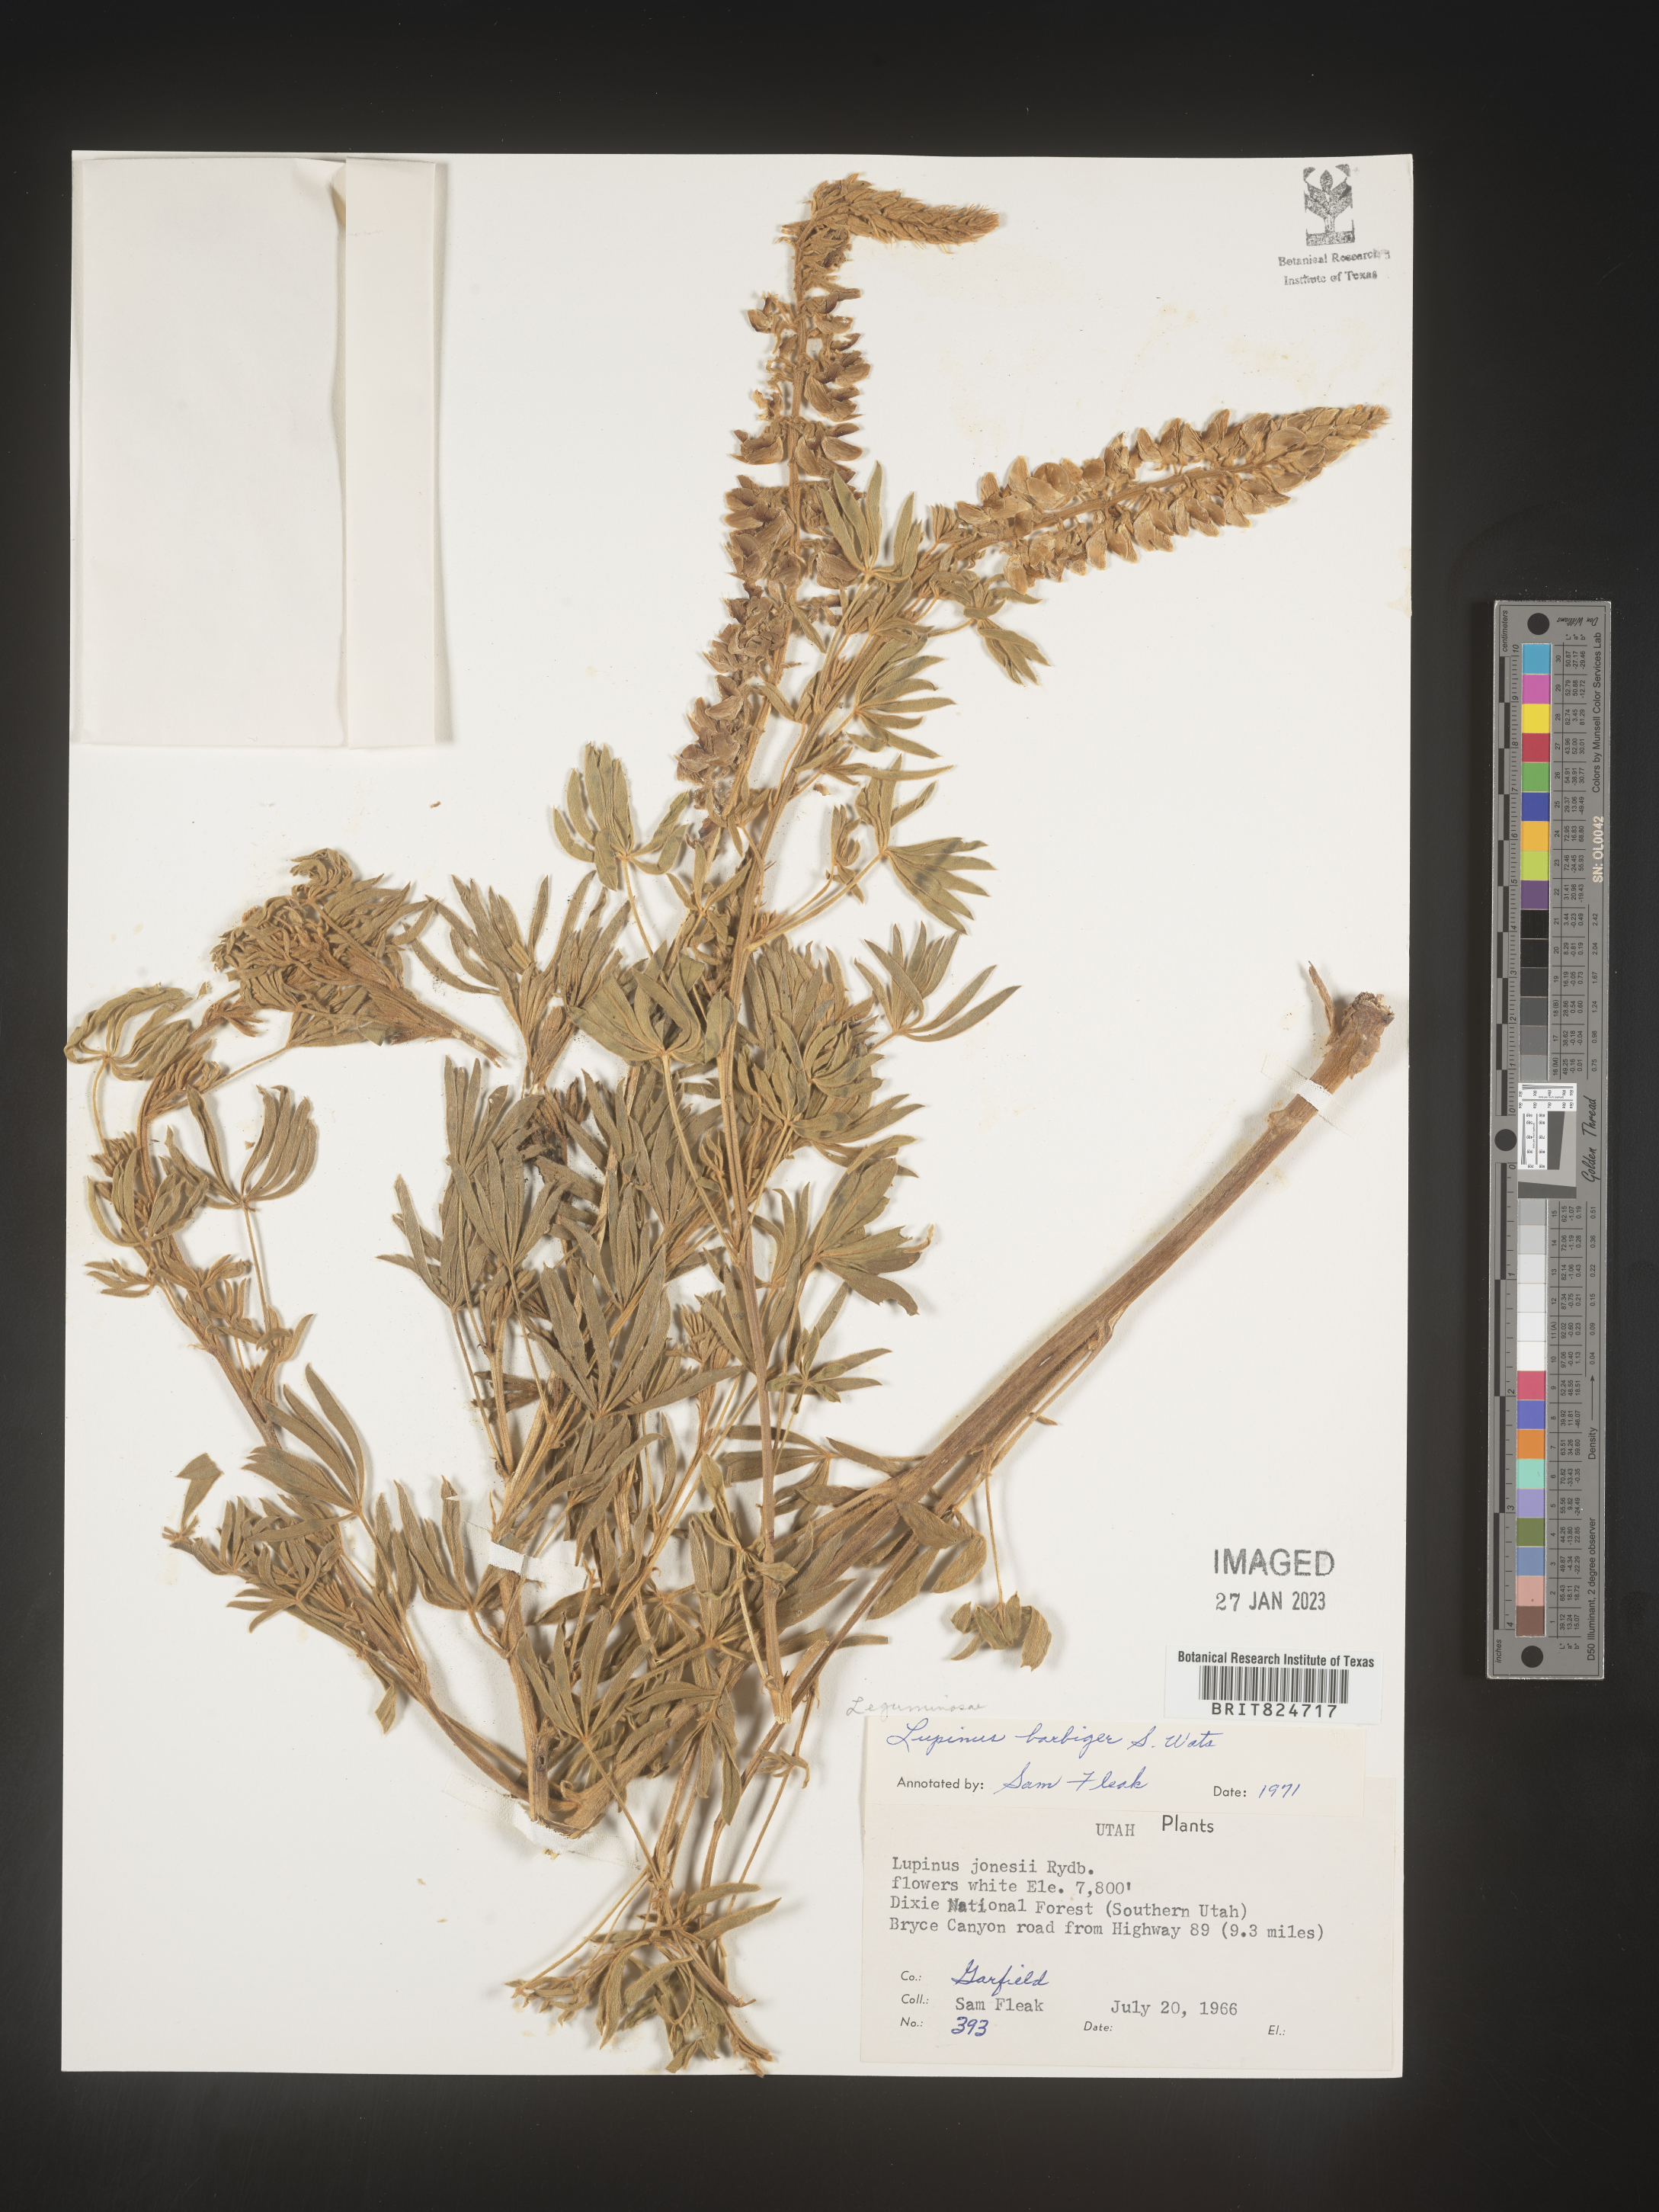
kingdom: Plantae
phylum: Tracheophyta
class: Magnoliopsida
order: Fabales
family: Fabaceae
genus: Lupinus
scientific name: Lupinus
